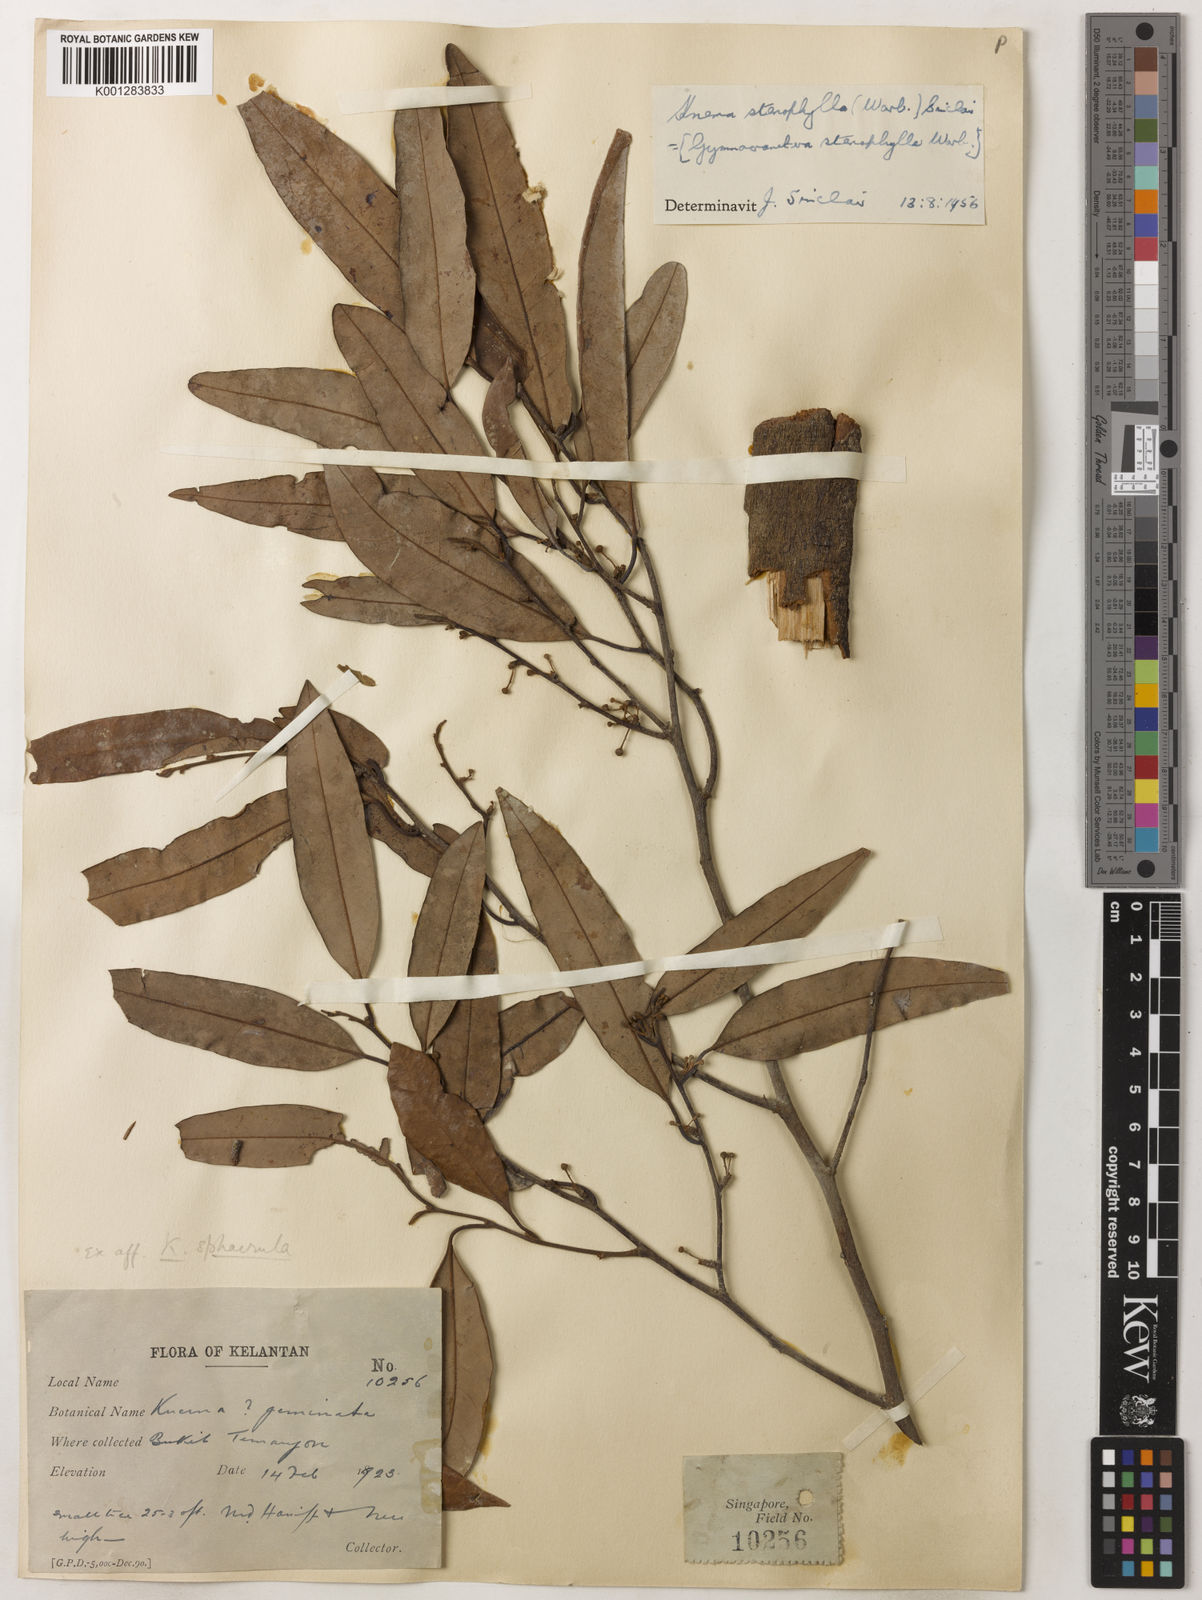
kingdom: Plantae
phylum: Tracheophyta
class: Magnoliopsida
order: Magnoliales
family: Myristicaceae
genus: Knema
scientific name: Knema stenophylla
